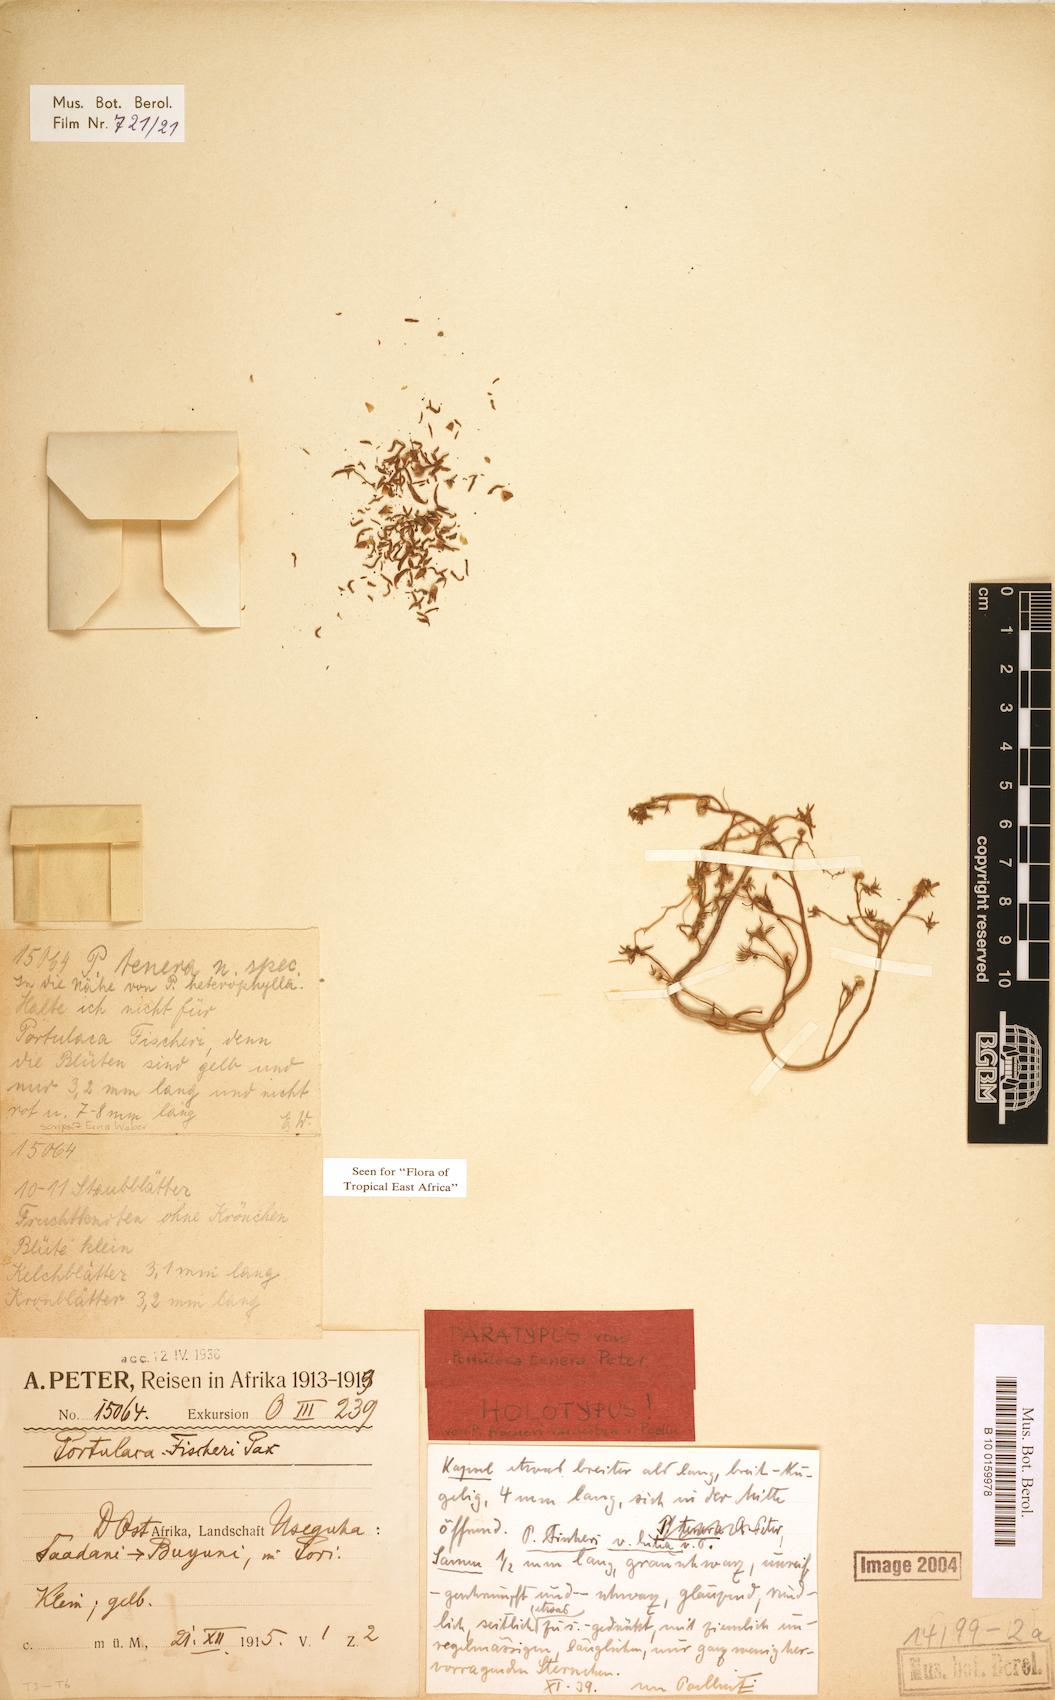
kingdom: Plantae
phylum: Tracheophyta
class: Magnoliopsida
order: Caryophyllales
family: Portulacaceae
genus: Portulaca
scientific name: Portulaca kermesina
